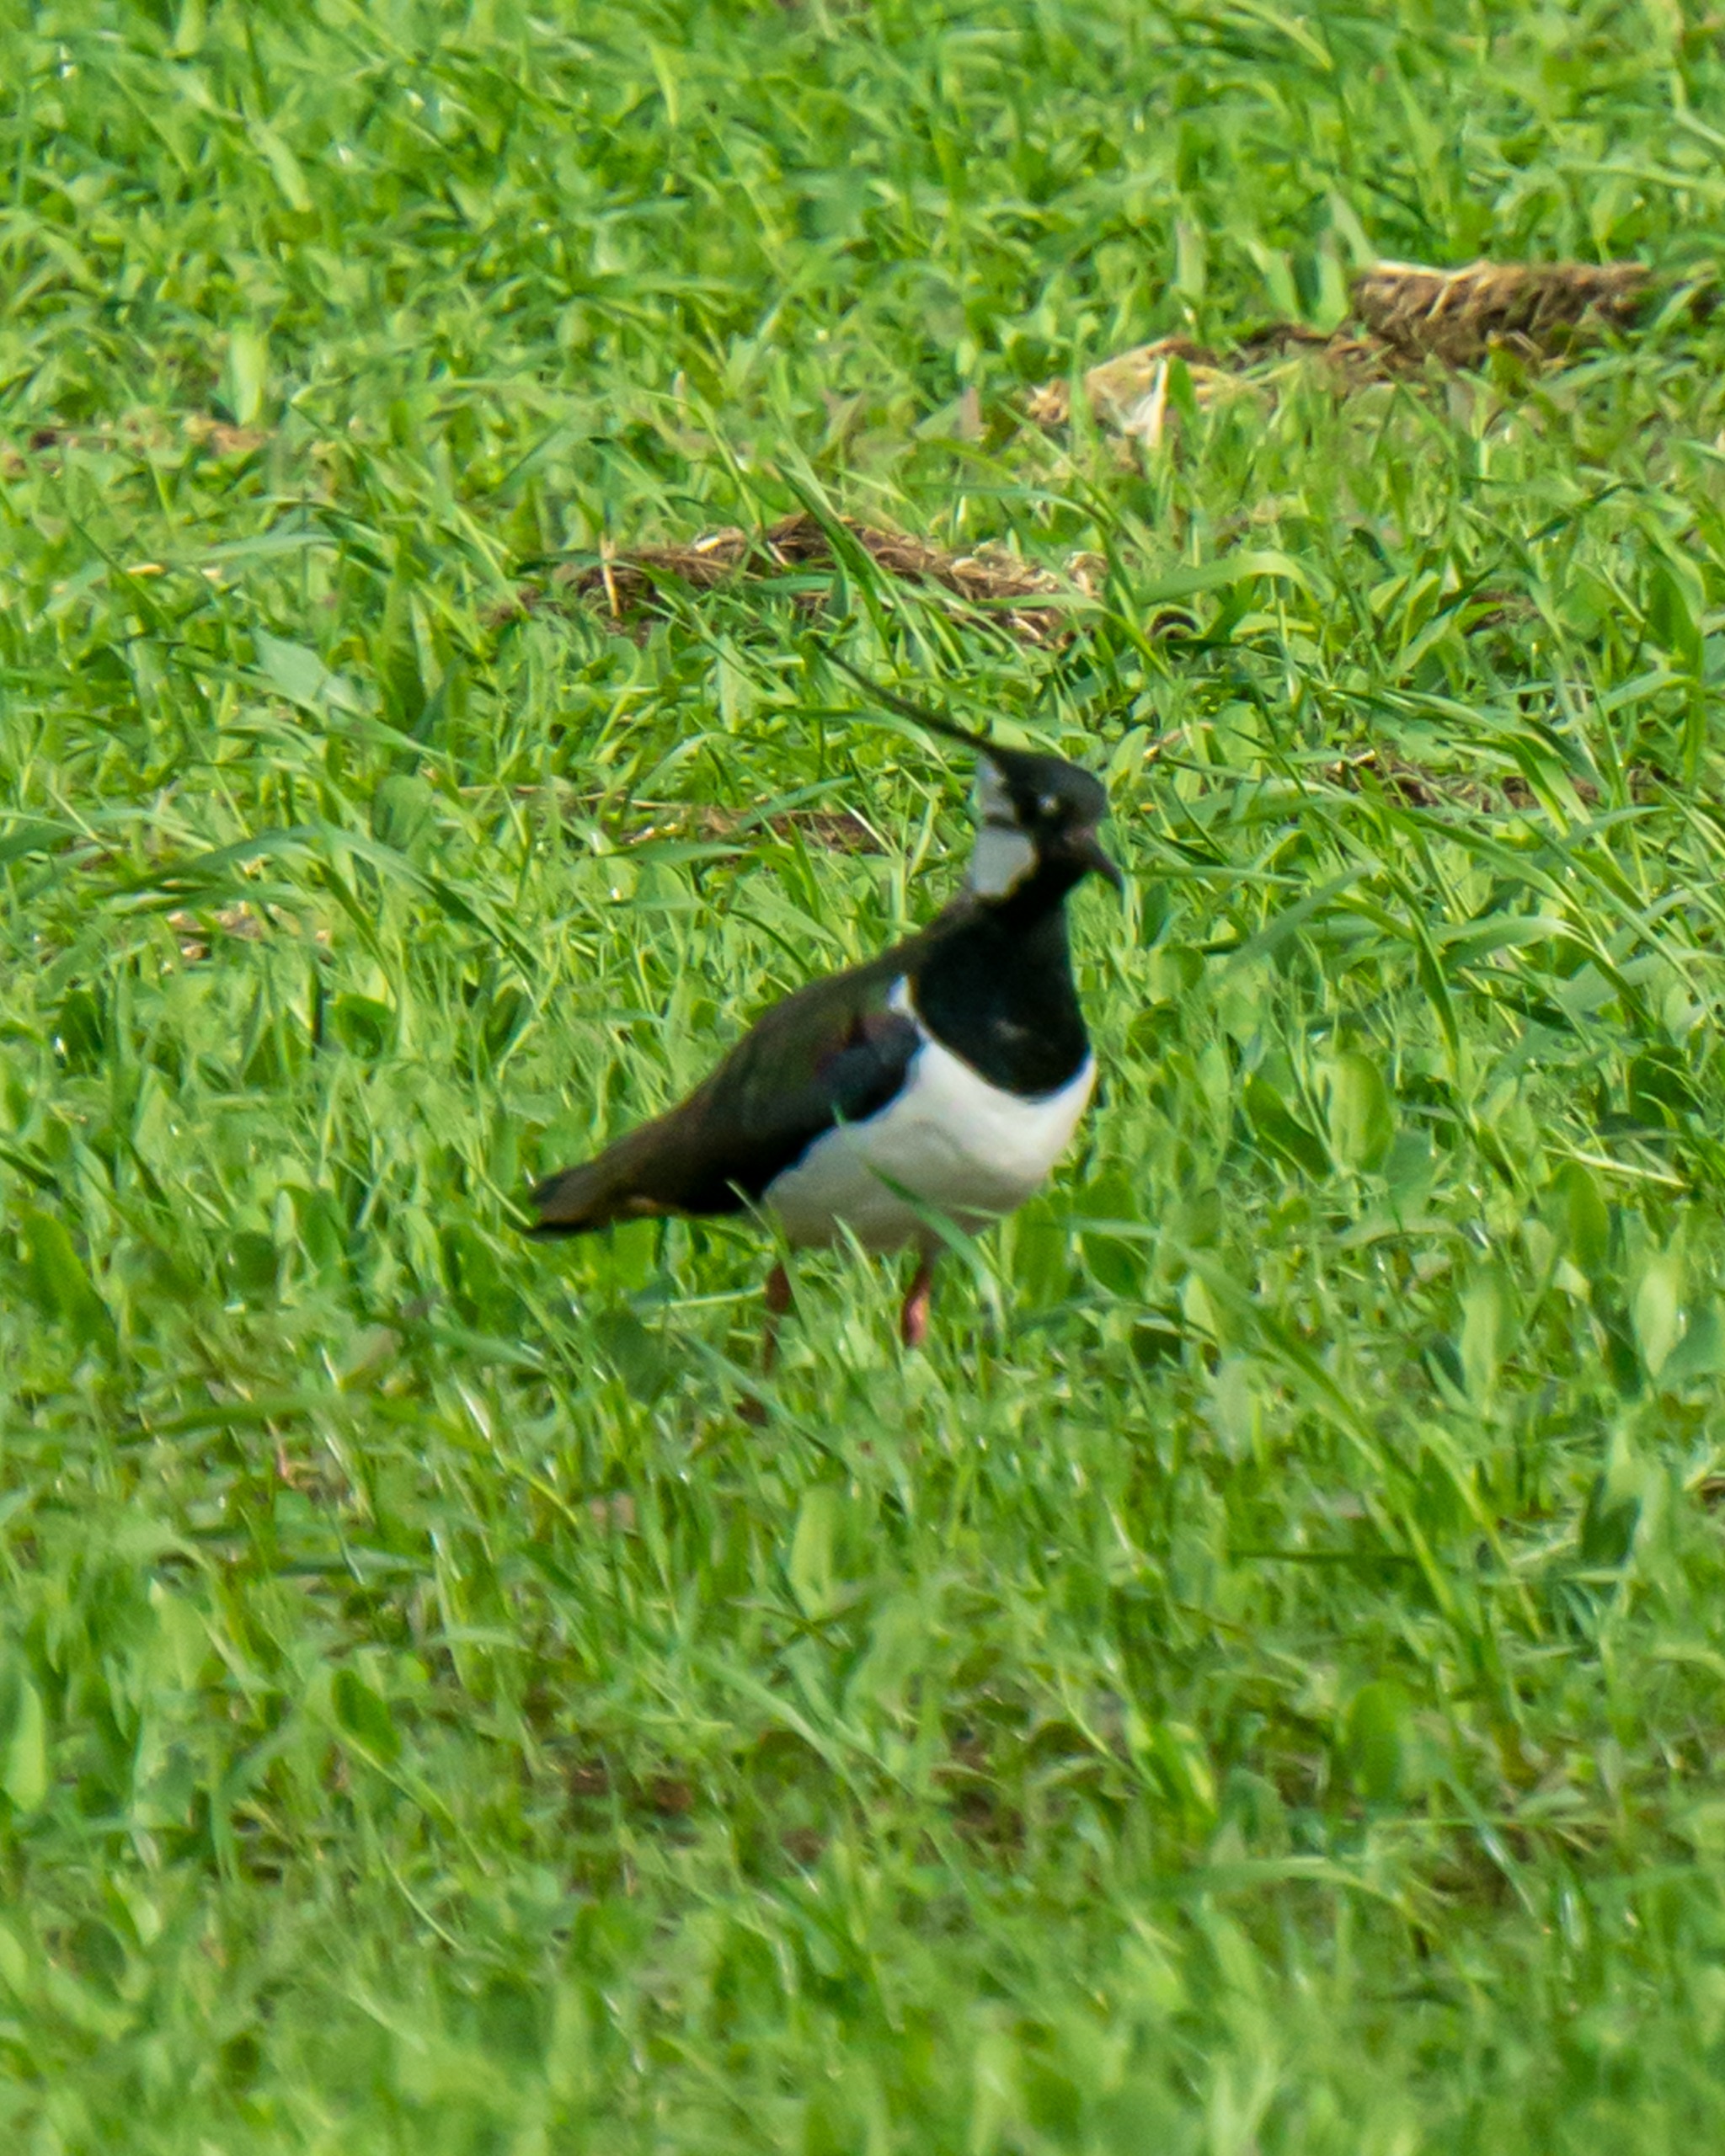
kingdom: Animalia
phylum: Chordata
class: Aves
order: Charadriiformes
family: Charadriidae
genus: Vanellus
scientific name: Vanellus vanellus
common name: Vibe
